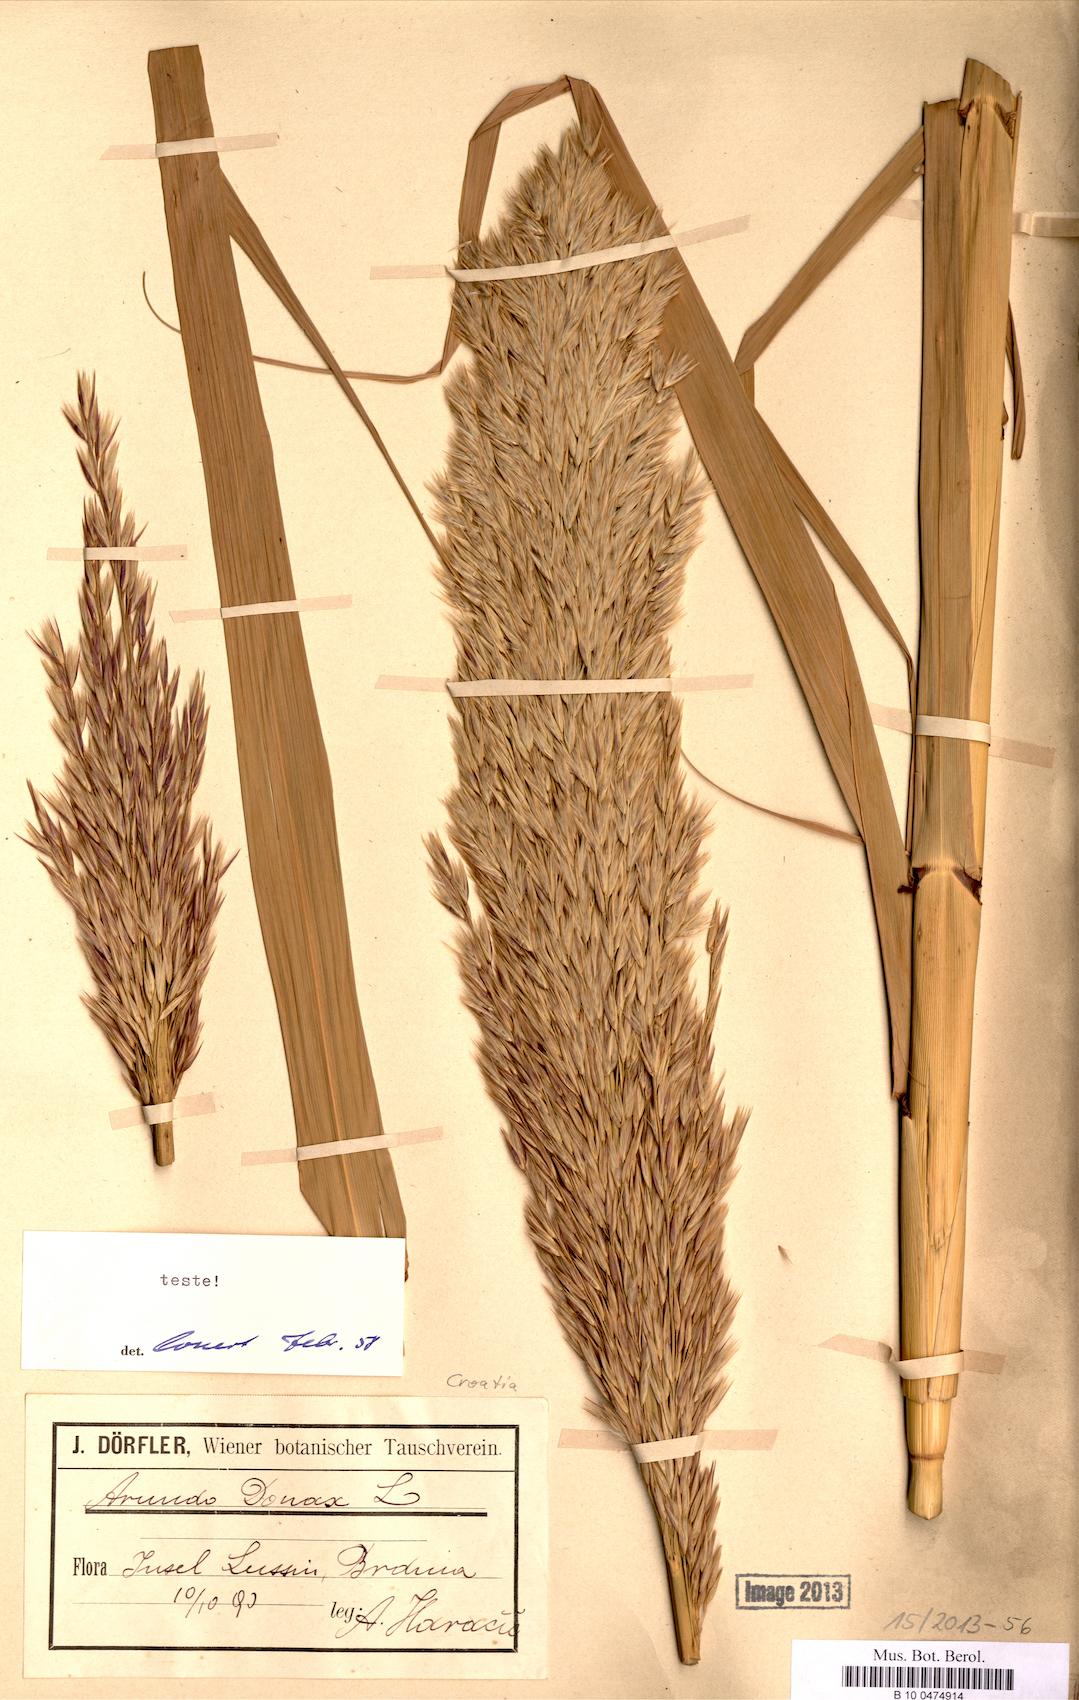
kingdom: Plantae
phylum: Tracheophyta
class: Liliopsida
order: Poales
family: Poaceae
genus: Arundo
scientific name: Arundo donax
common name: Giant reed
